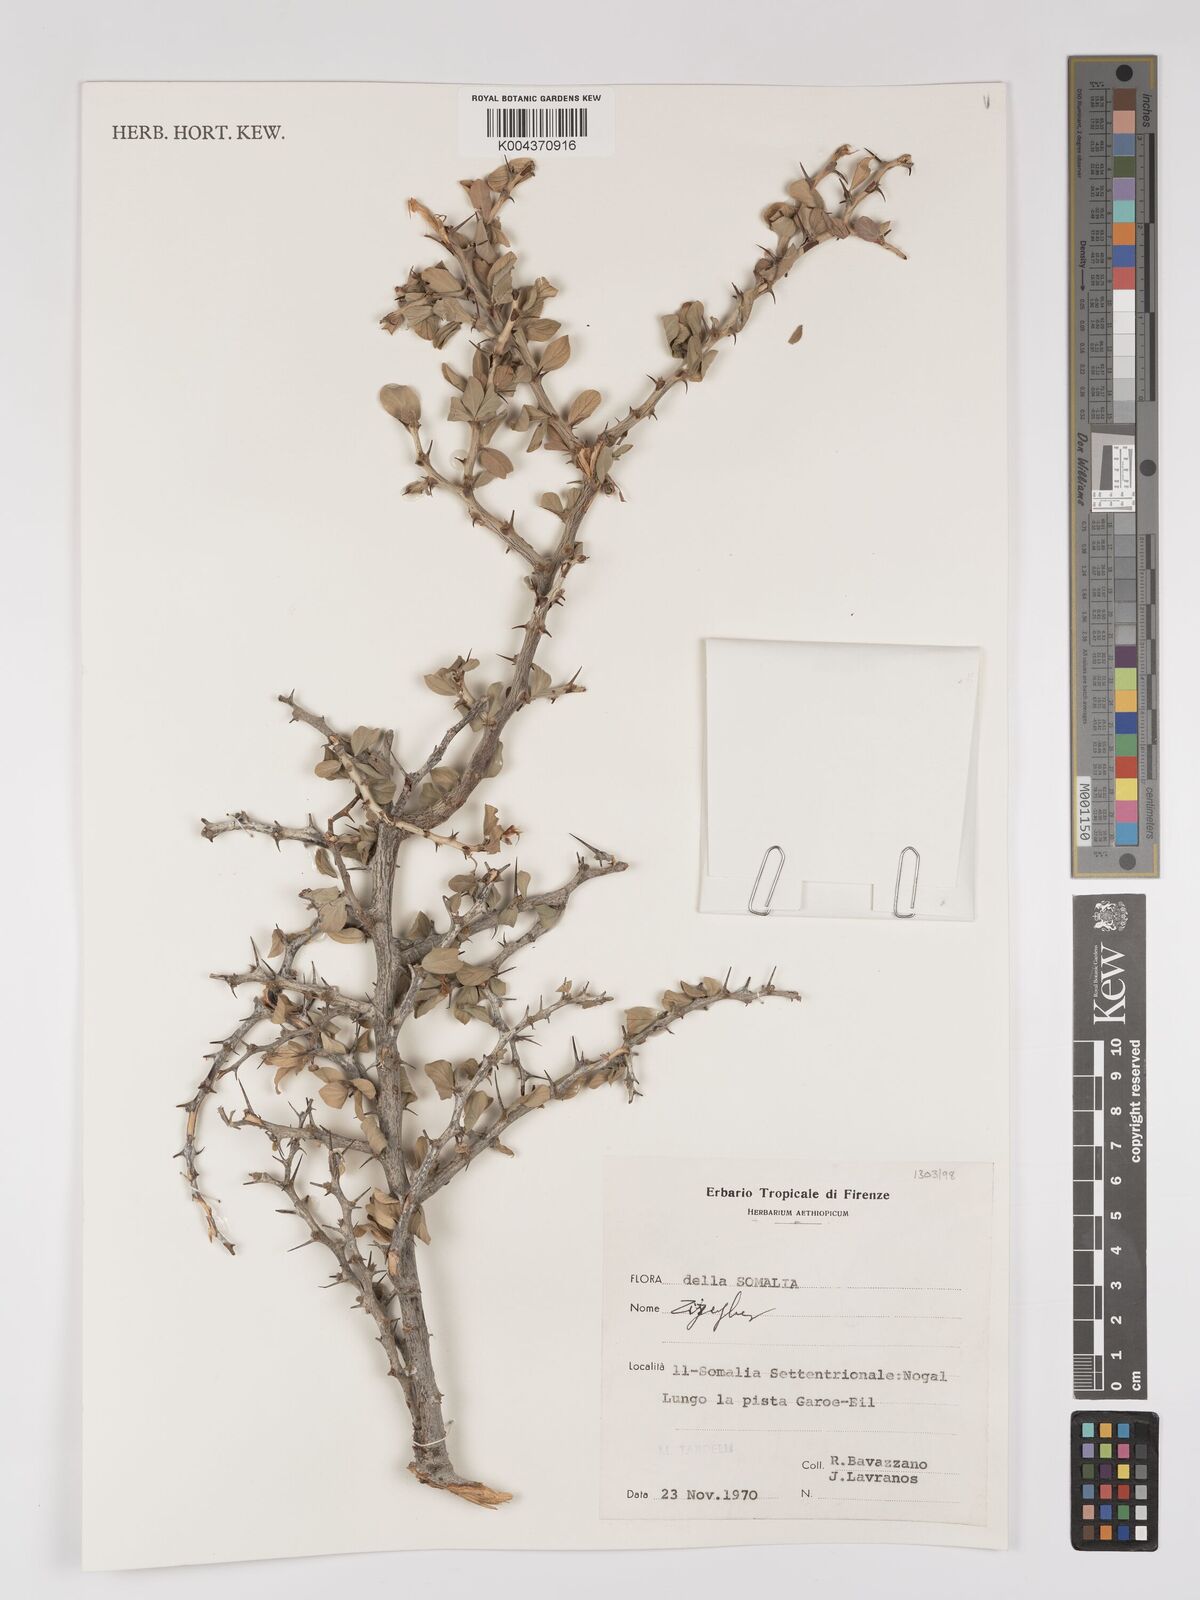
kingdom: Plantae
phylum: Tracheophyta
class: Magnoliopsida
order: Rosales
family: Rhamnaceae
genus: Ziziphus
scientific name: Ziziphus
